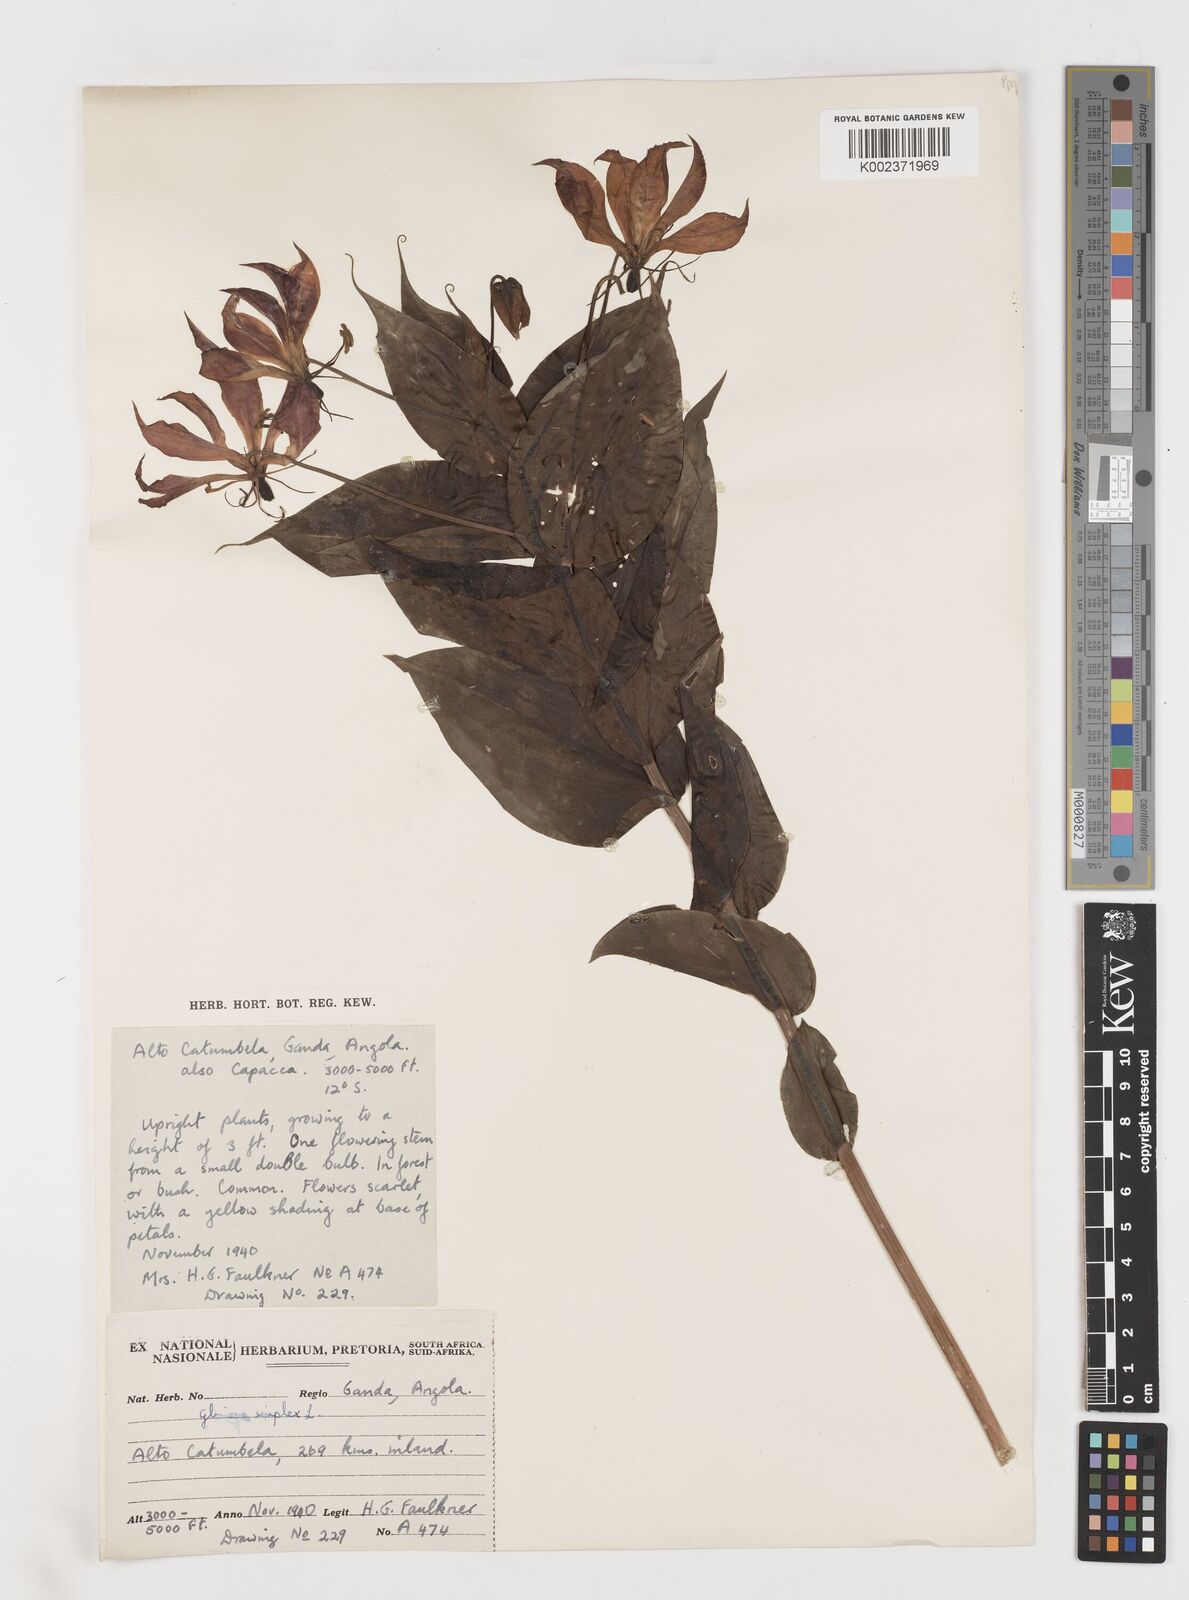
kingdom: Plantae
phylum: Tracheophyta
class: Liliopsida
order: Liliales
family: Colchicaceae
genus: Gloriosa
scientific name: Gloriosa simplex
